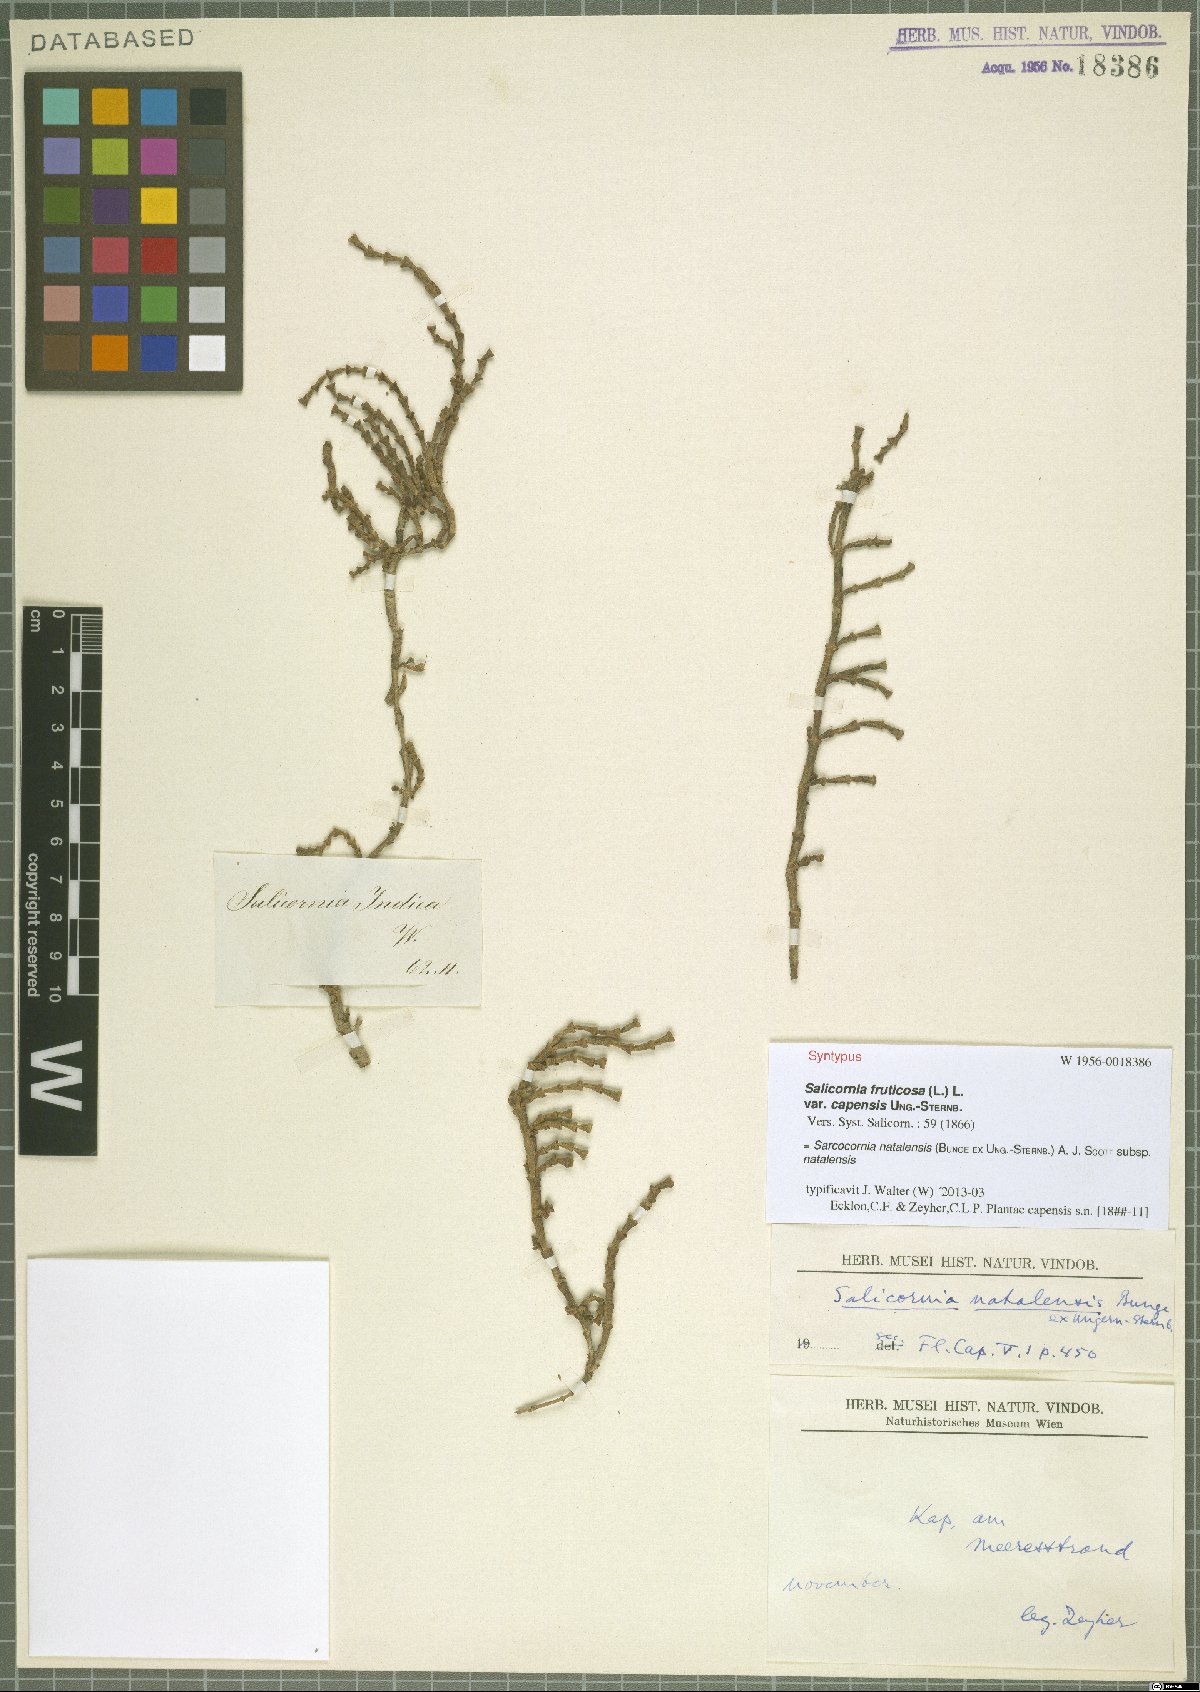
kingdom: Plantae
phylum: Tracheophyta
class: Magnoliopsida
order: Caryophyllales
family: Amaranthaceae
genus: Salicornia
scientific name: Salicornia natalensis
